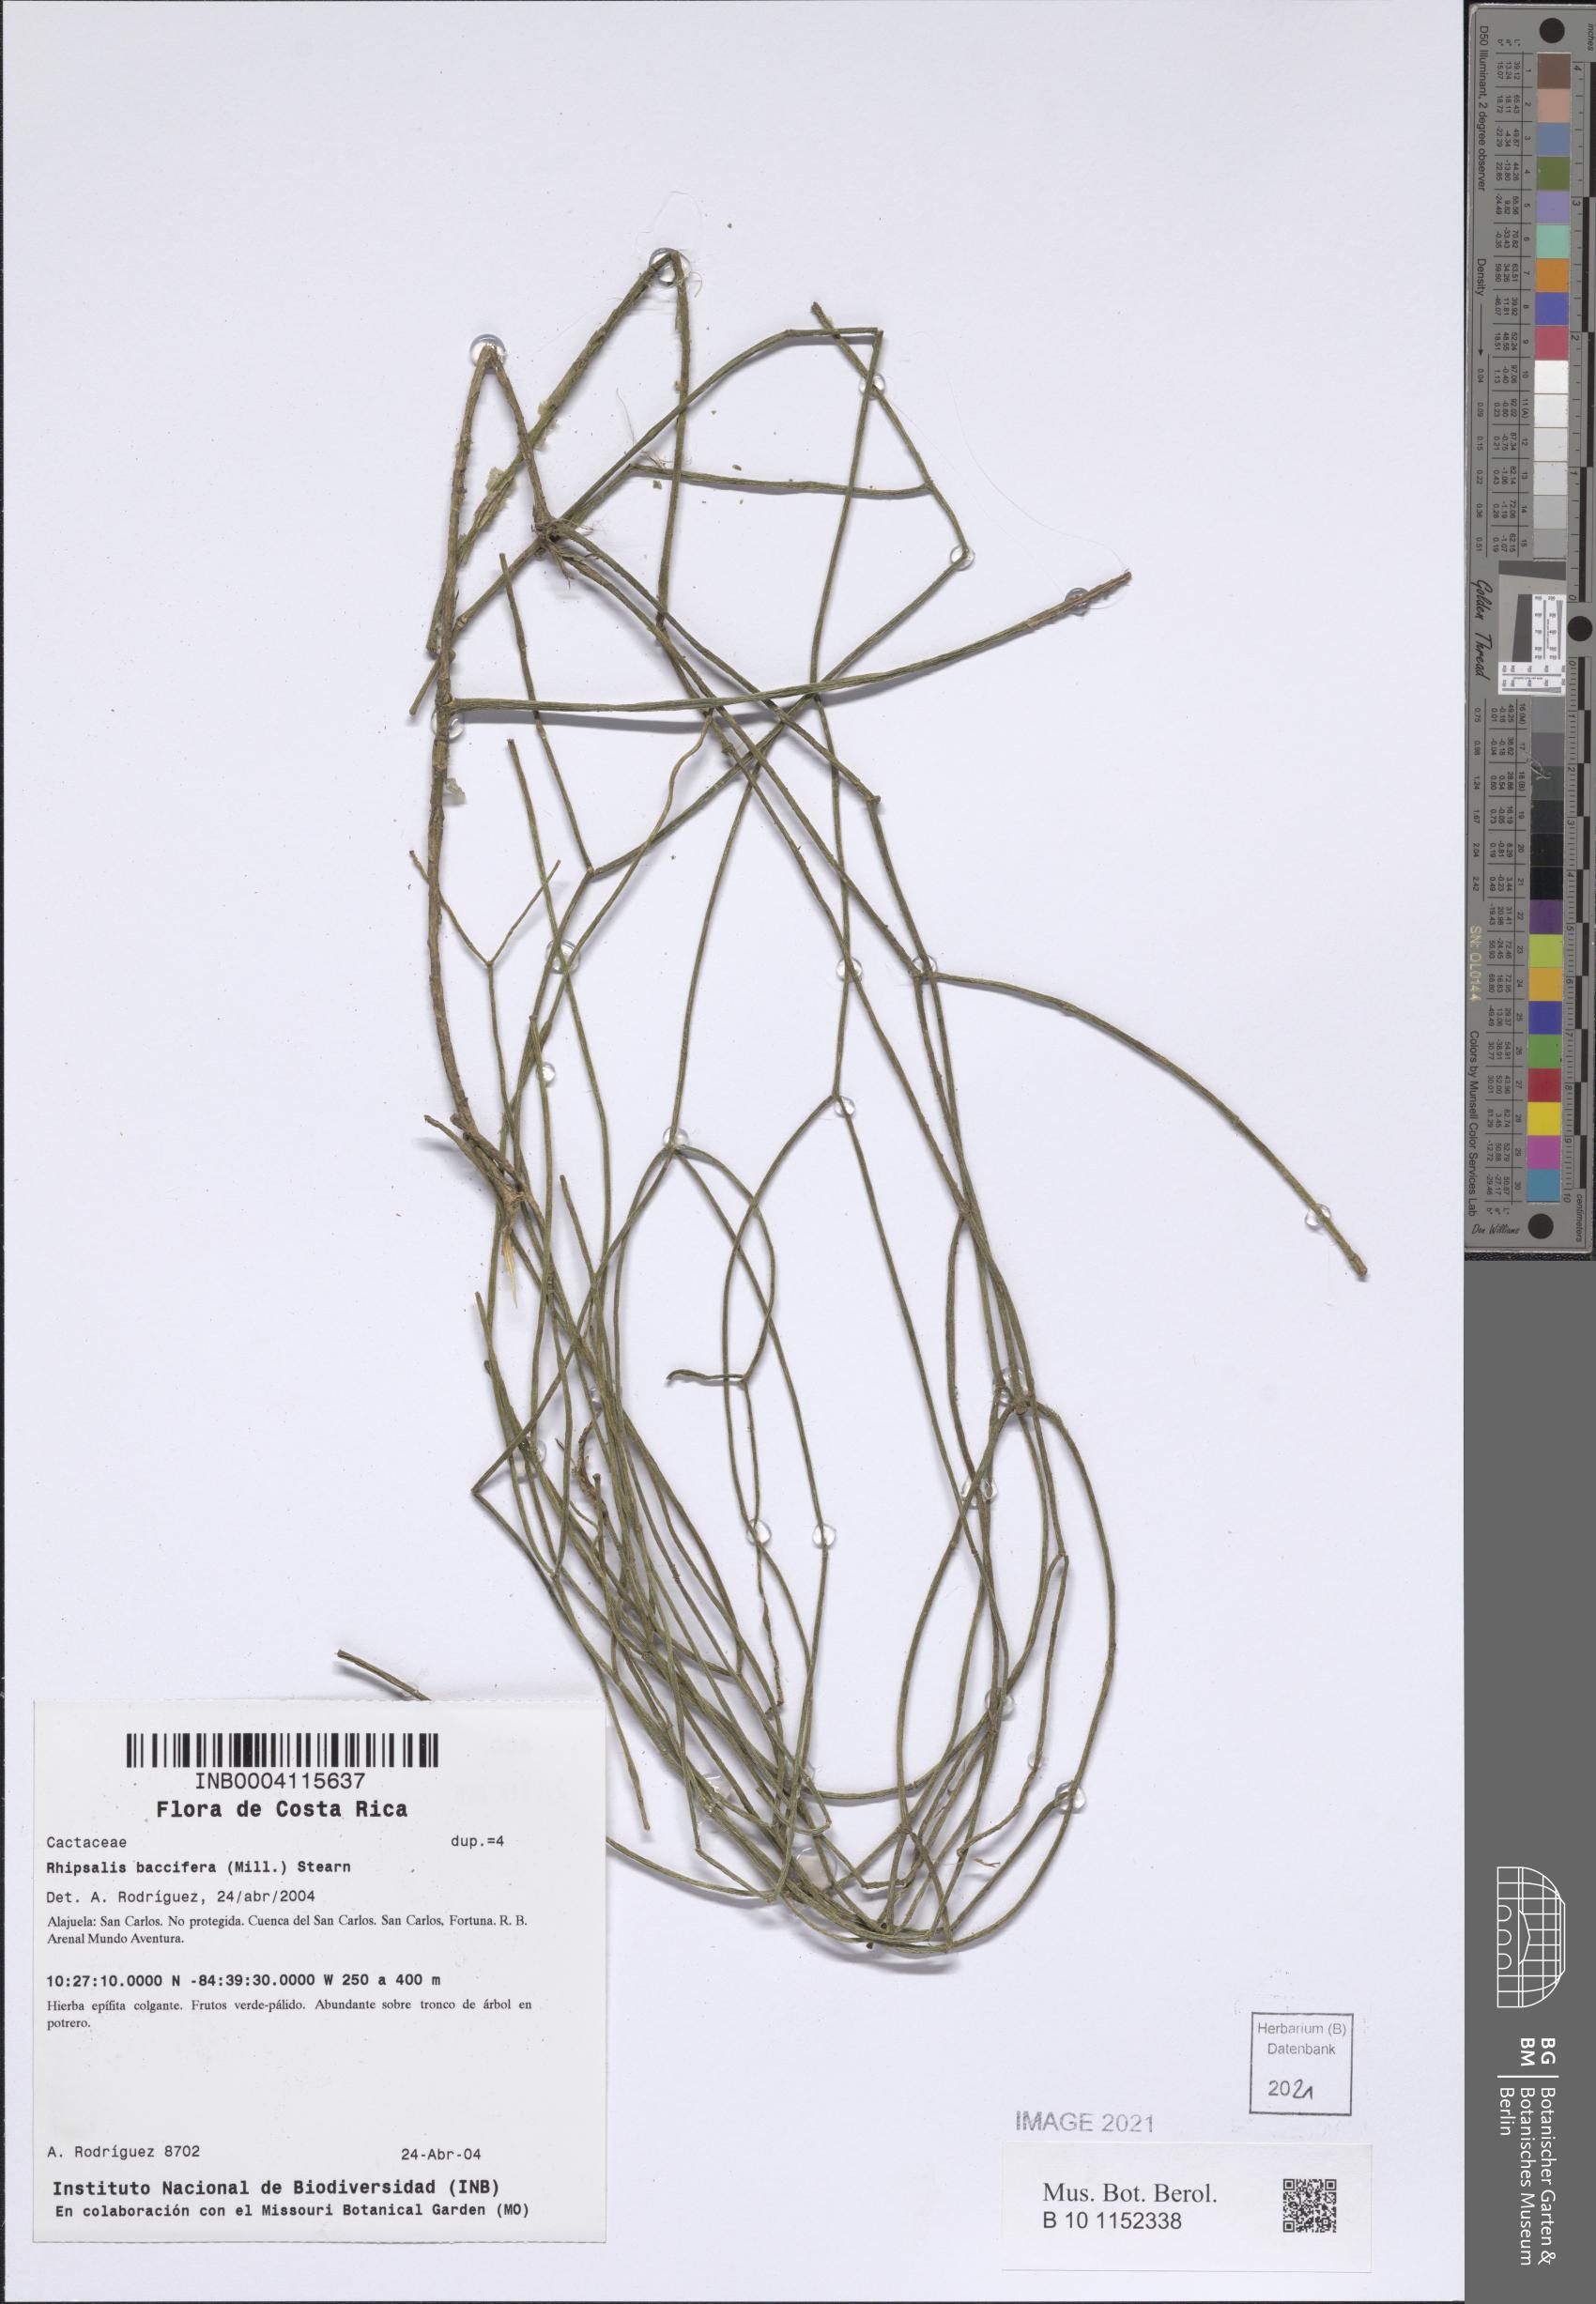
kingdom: Plantae
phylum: Tracheophyta
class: Magnoliopsida
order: Caryophyllales
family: Cactaceae
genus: Rhipsalis
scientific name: Rhipsalis baccifera
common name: Mistletoe cactus
